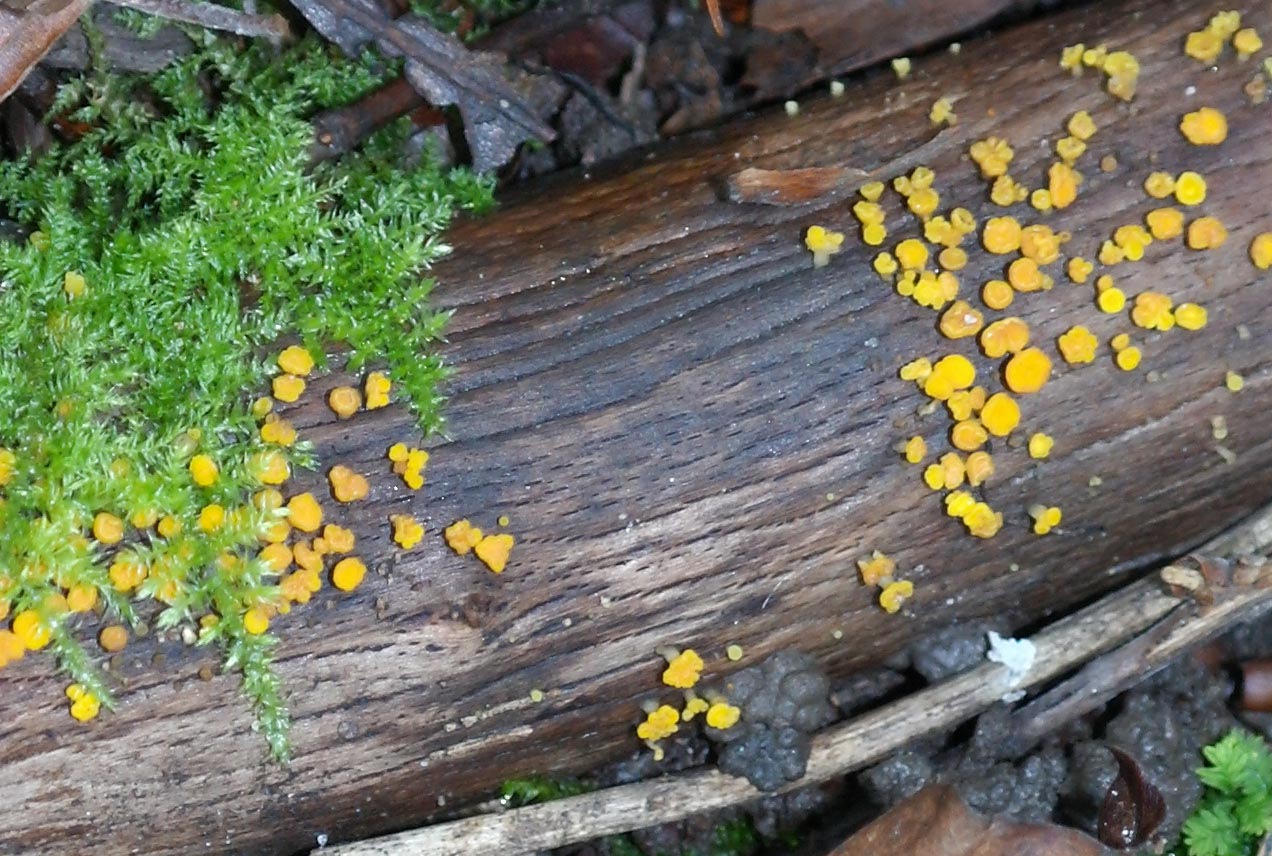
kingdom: Fungi
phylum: Ascomycota
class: Leotiomycetes
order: Helotiales
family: Pezizellaceae
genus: Calycina
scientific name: Calycina citrina
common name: almindelig gulskive
